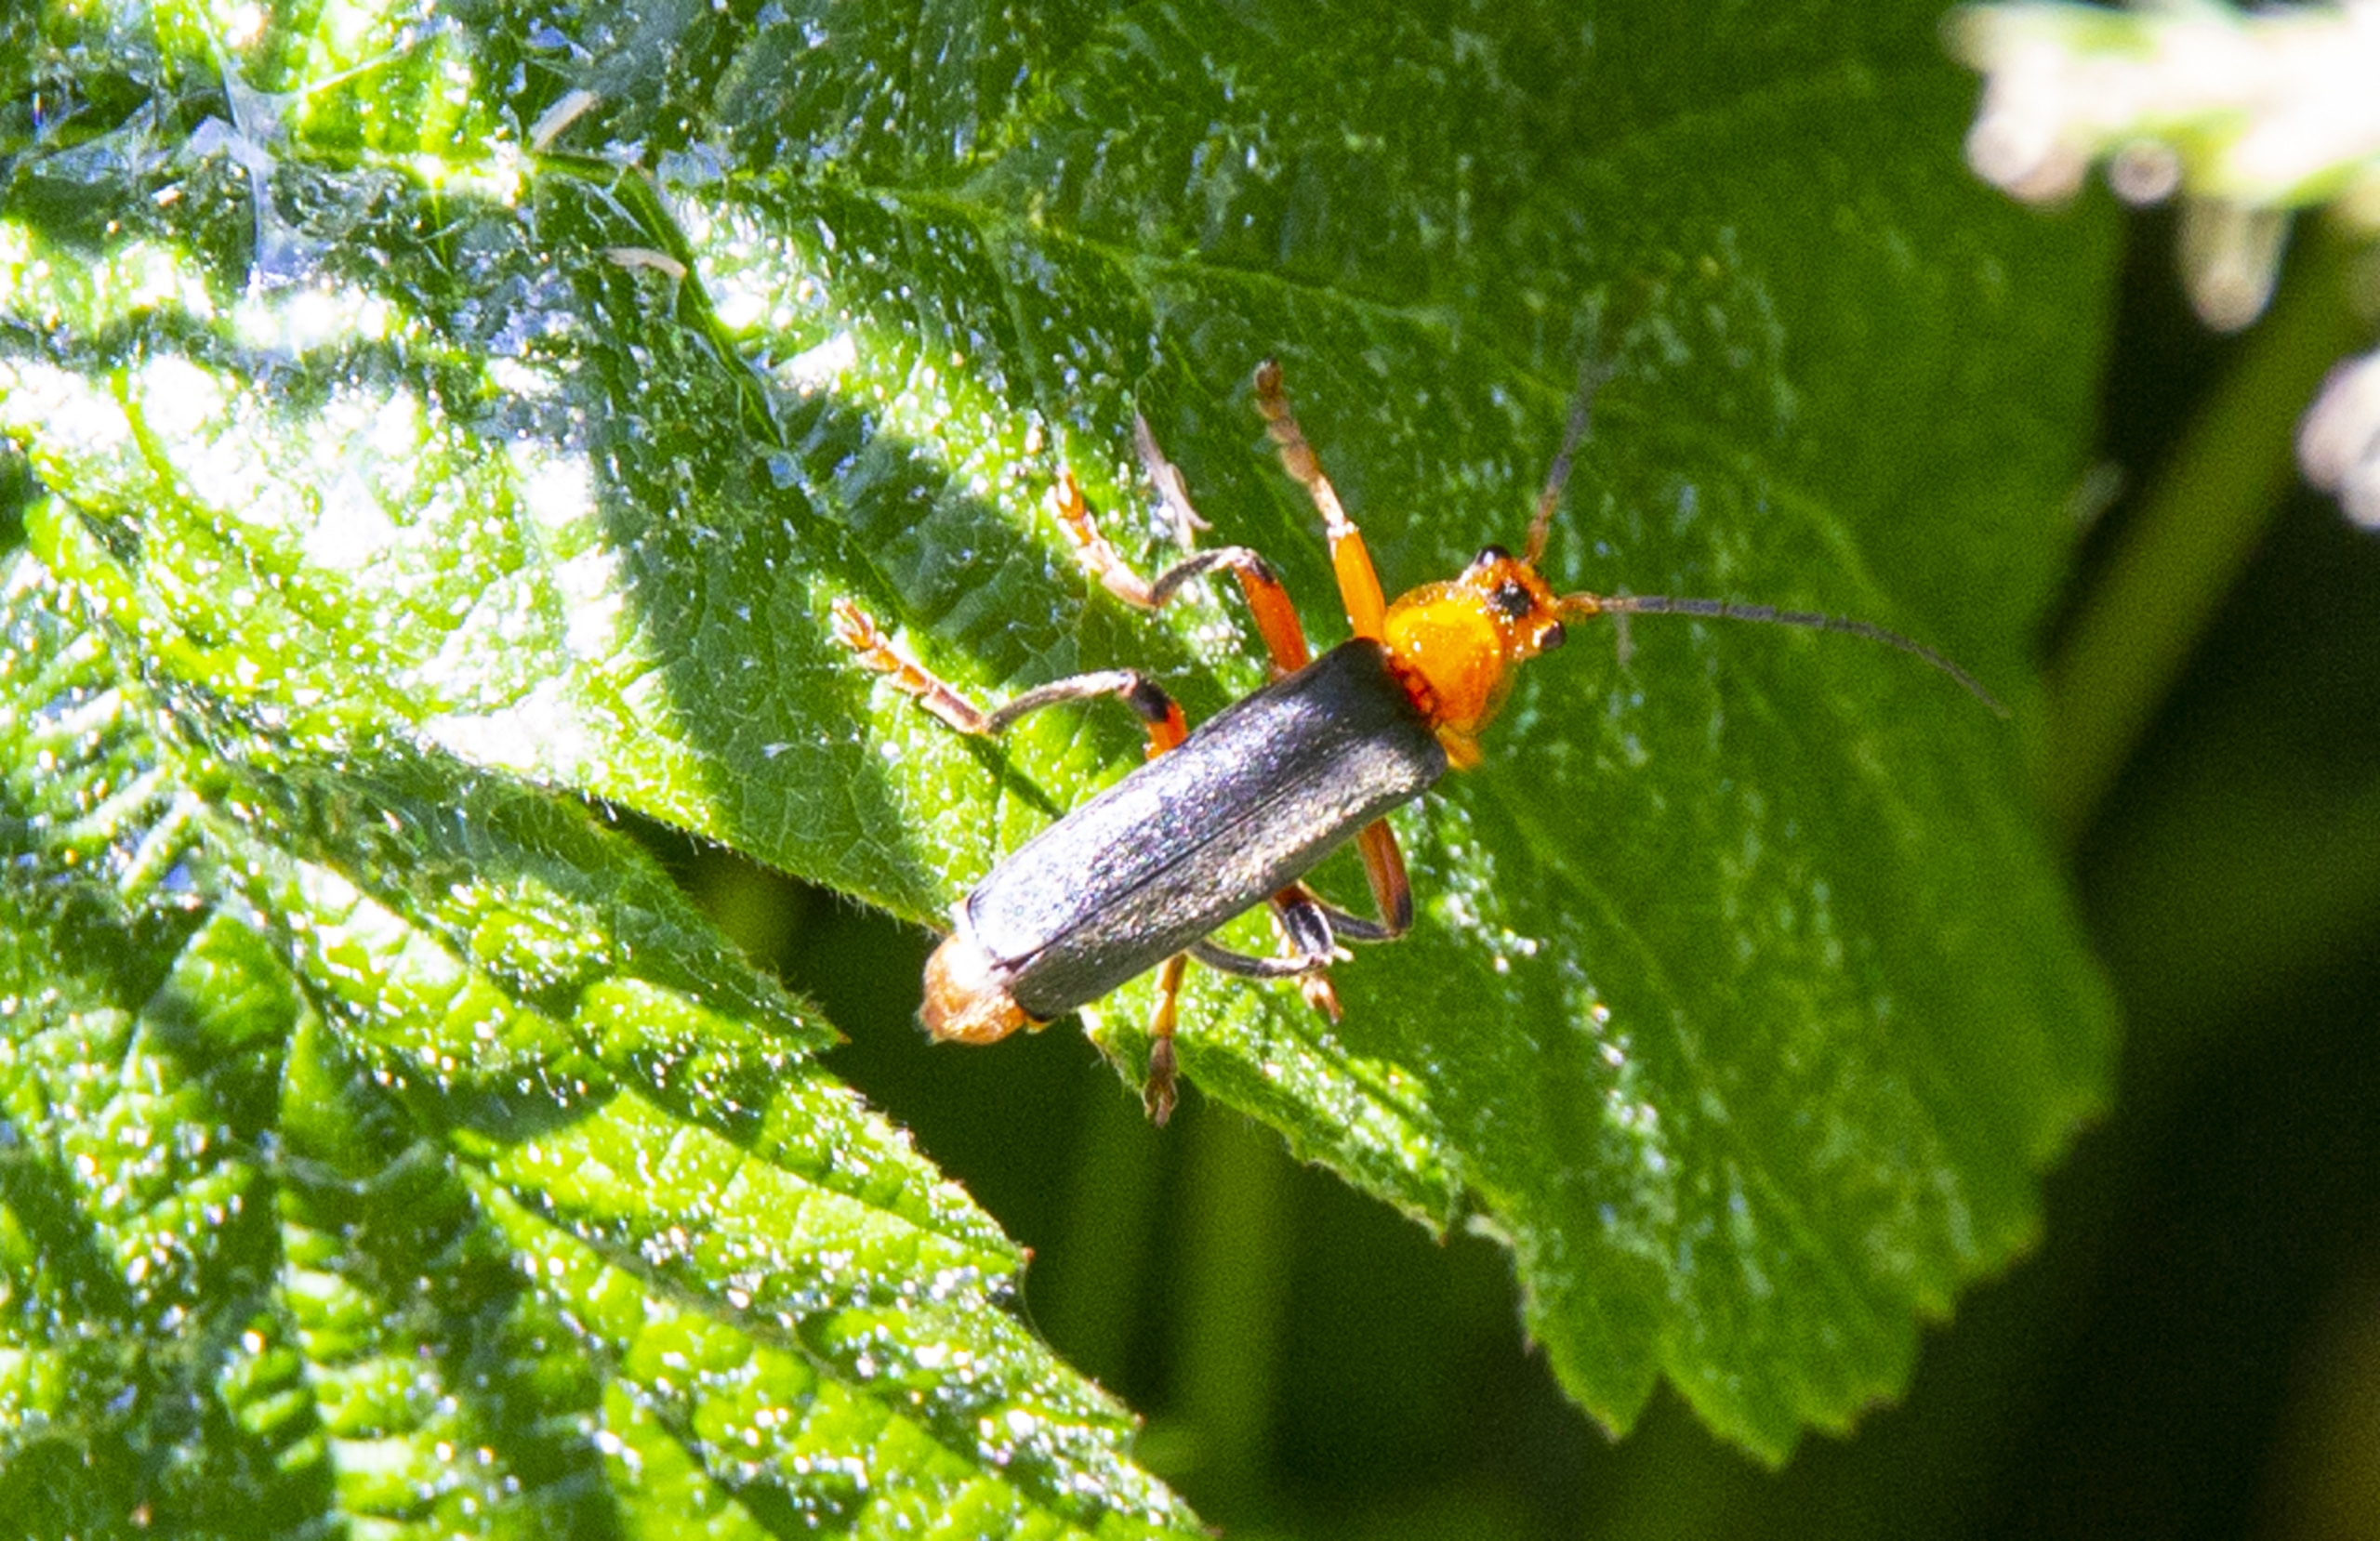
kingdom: Animalia
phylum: Arthropoda
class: Insecta
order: Coleoptera
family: Cantharidae
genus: Cantharis
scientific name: Cantharis
